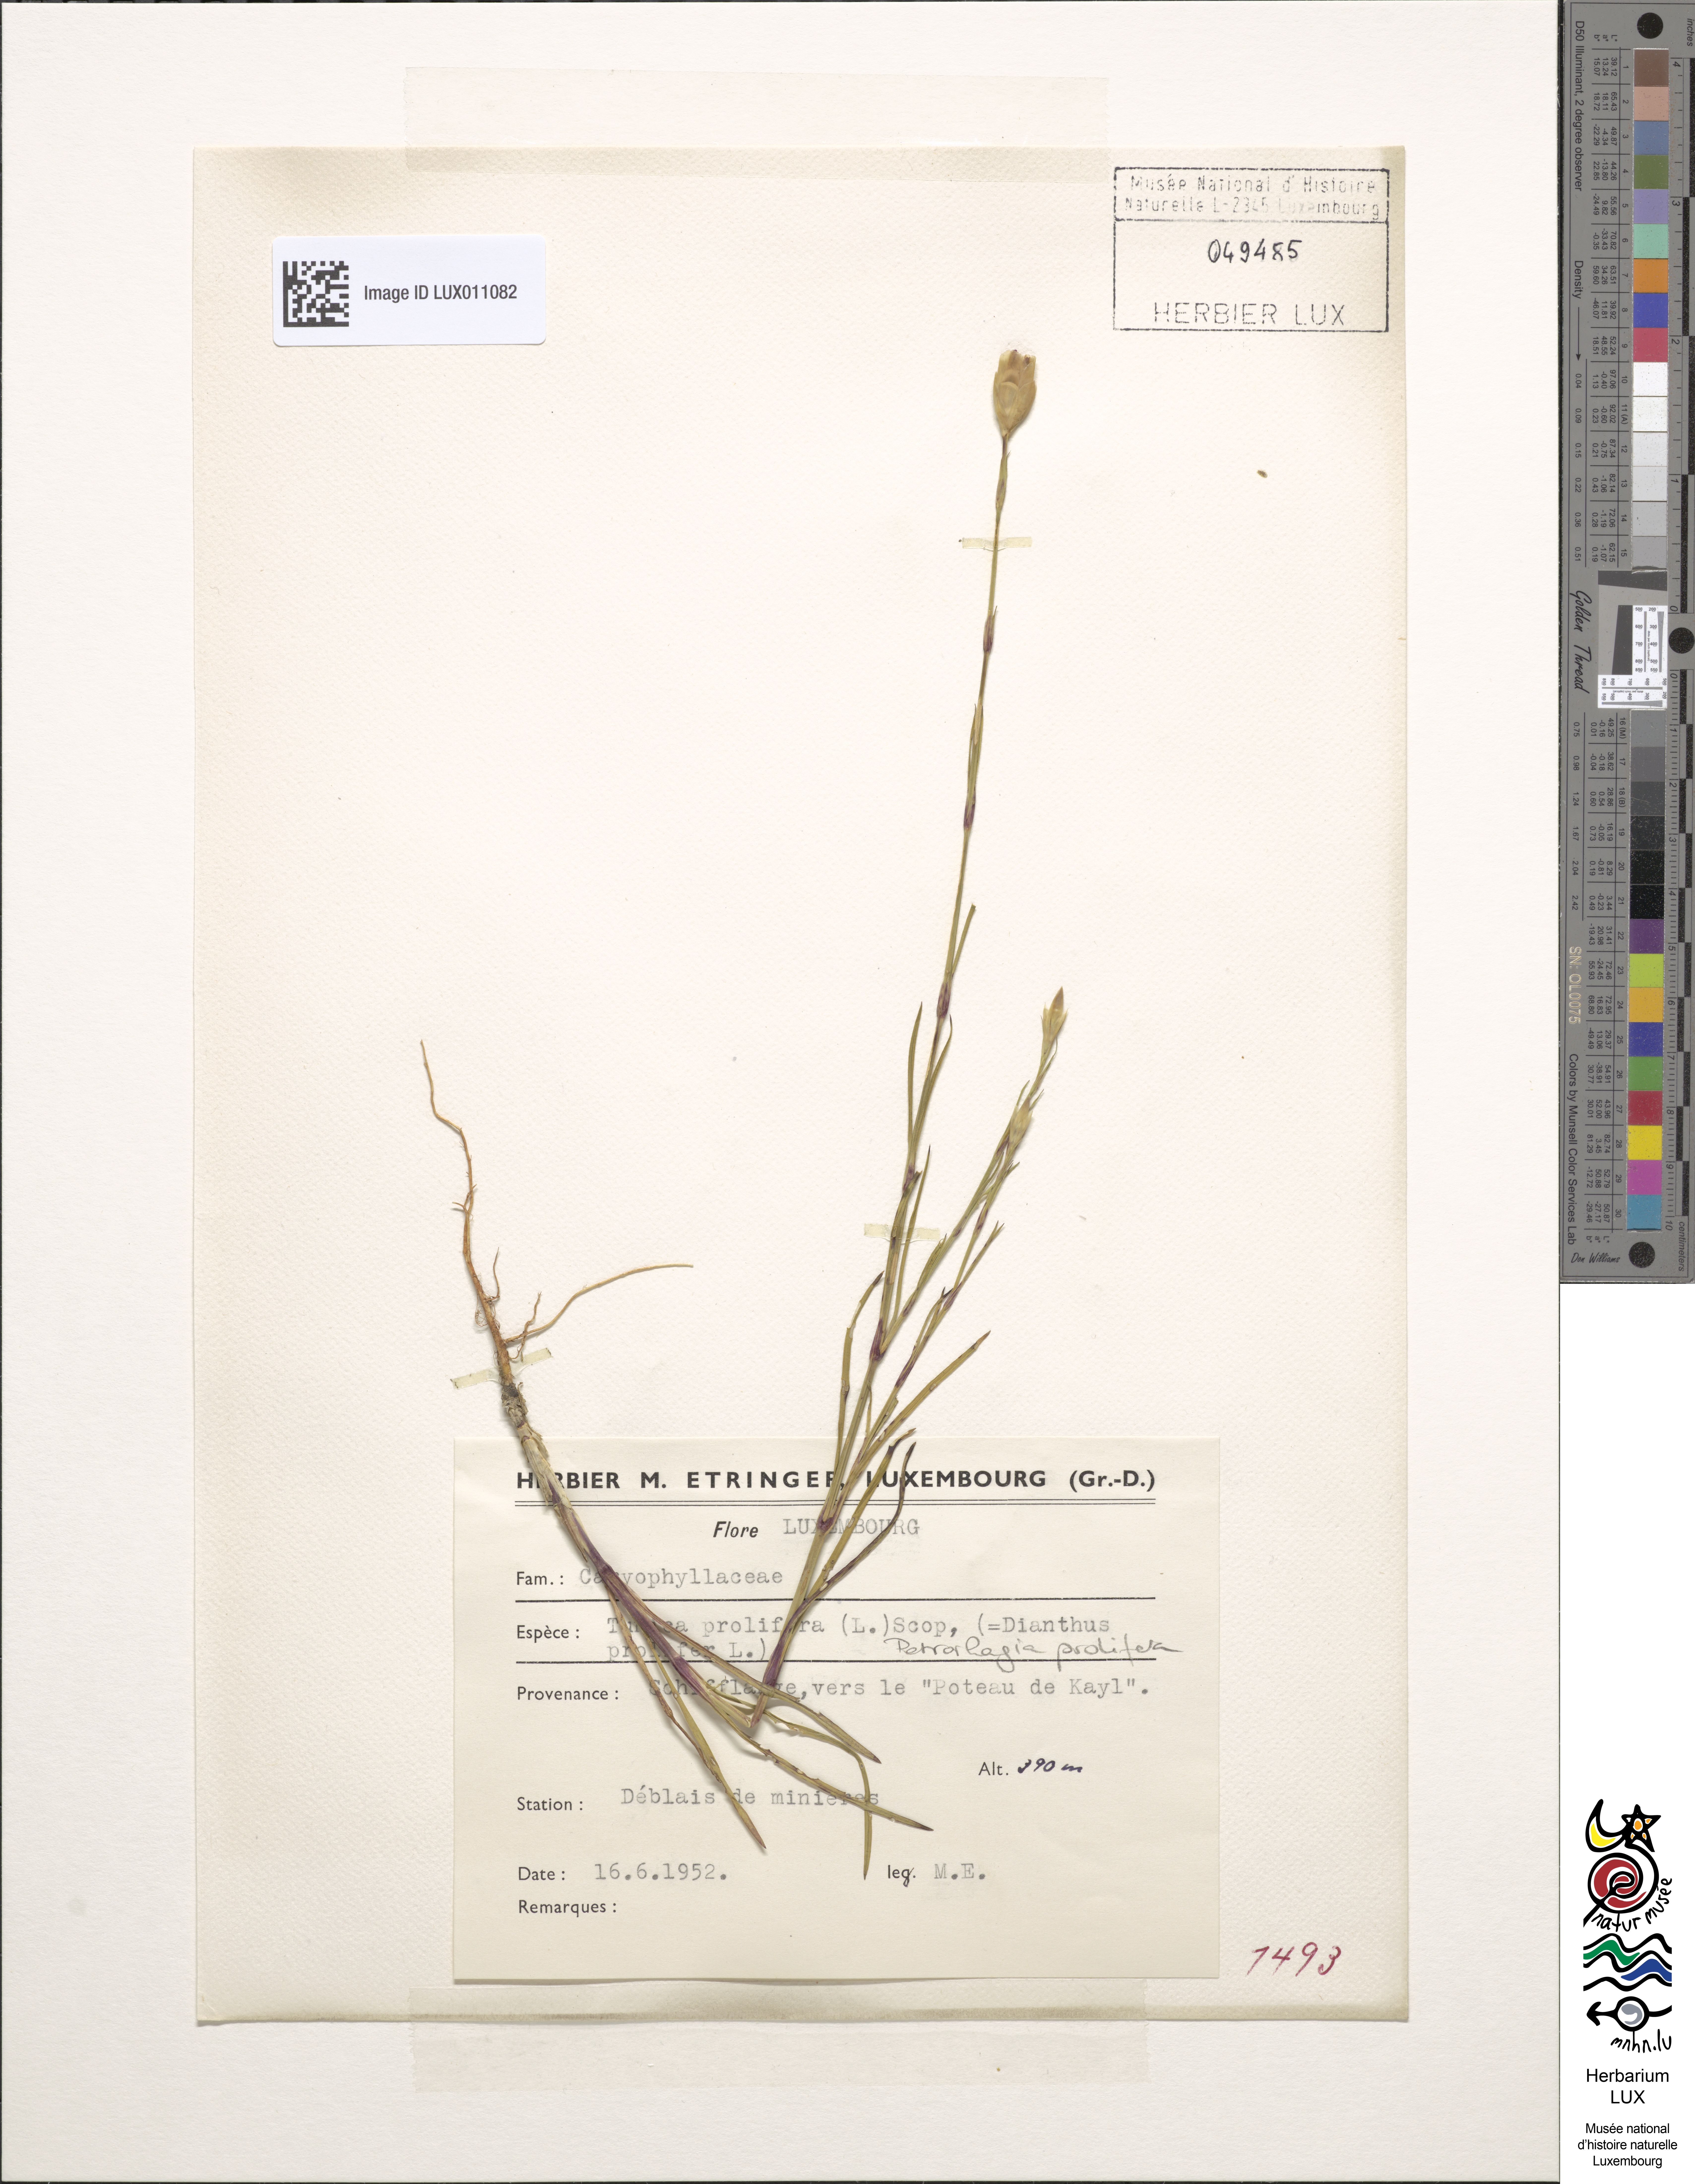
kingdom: Plantae
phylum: Tracheophyta
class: Magnoliopsida
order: Caryophyllales
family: Caryophyllaceae
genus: Petrorhagia
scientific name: Petrorhagia prolifera
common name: Proliferous pink
